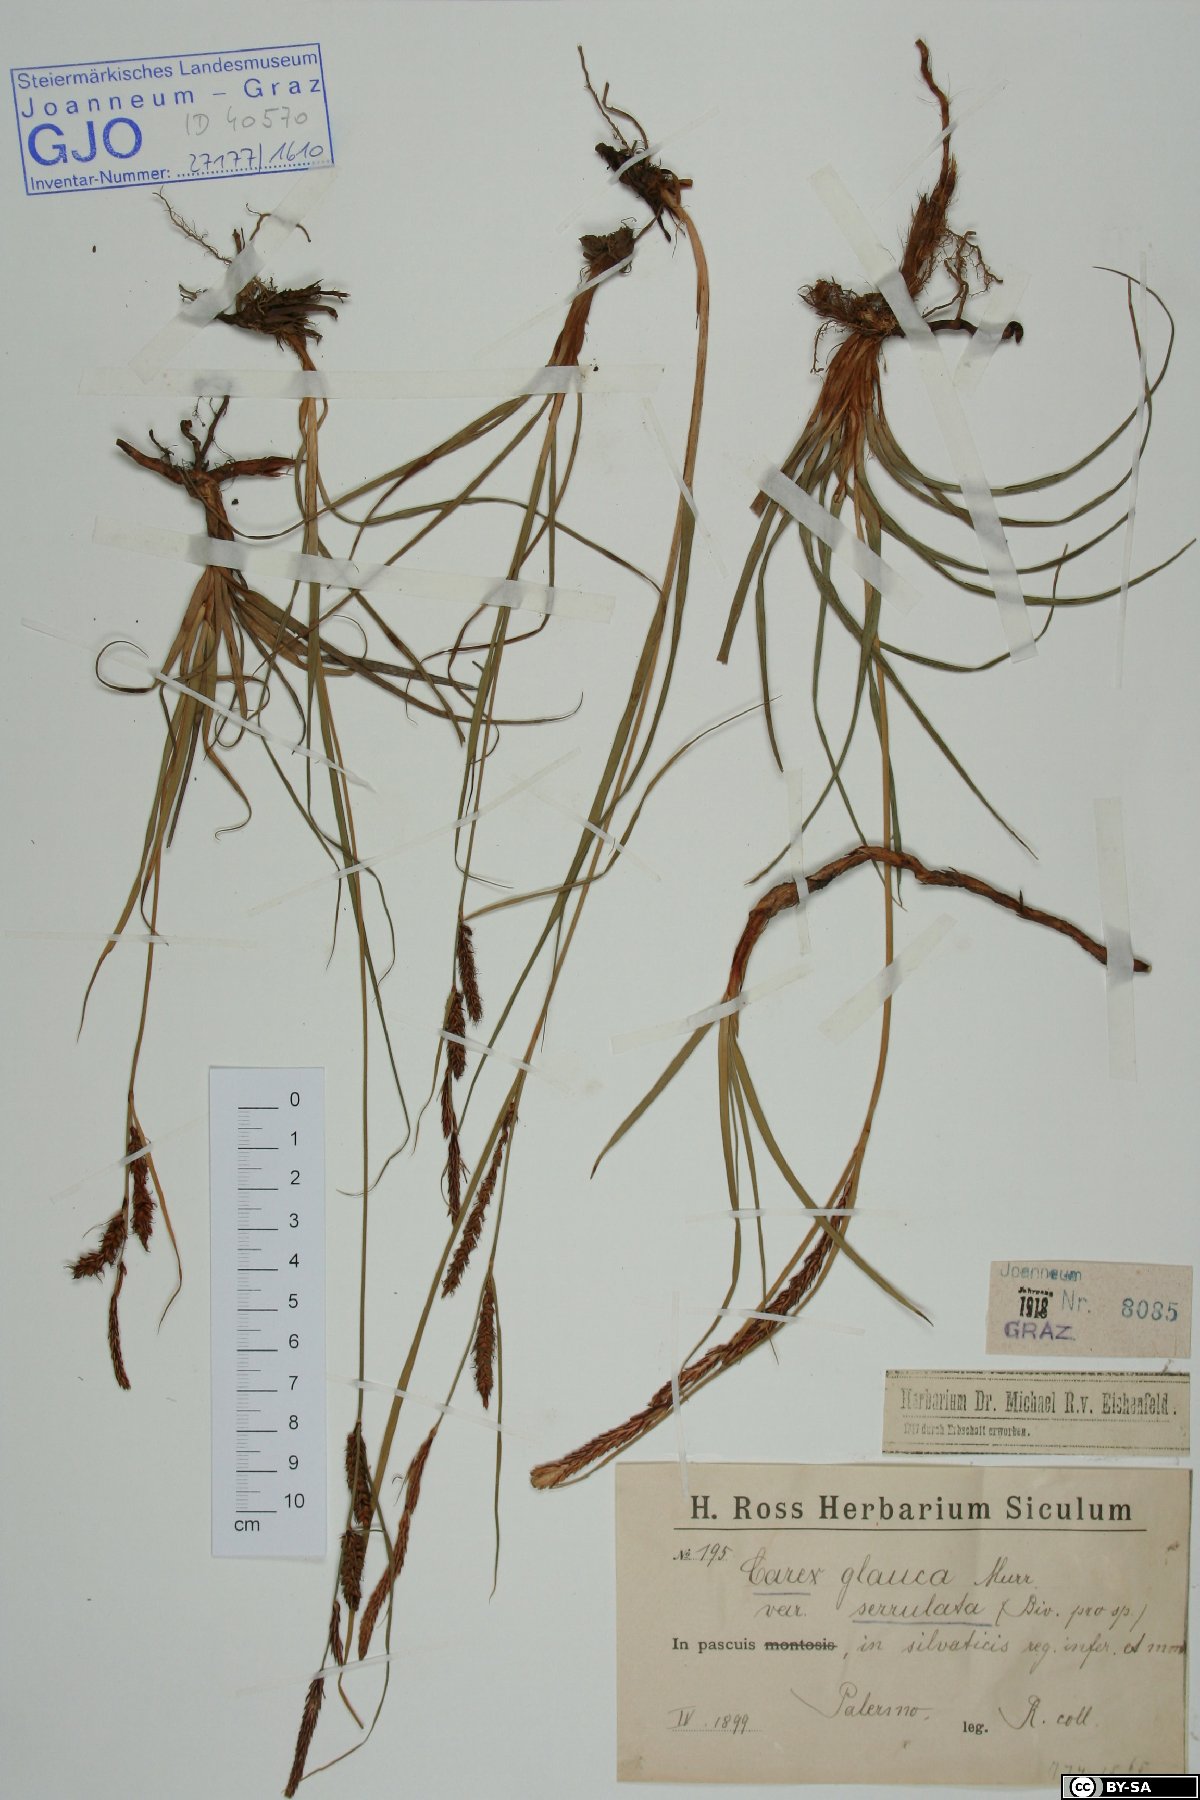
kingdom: Plantae
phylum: Tracheophyta
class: Liliopsida
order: Poales
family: Cyperaceae
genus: Carex
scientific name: Carex flacca
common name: Glaucous sedge
